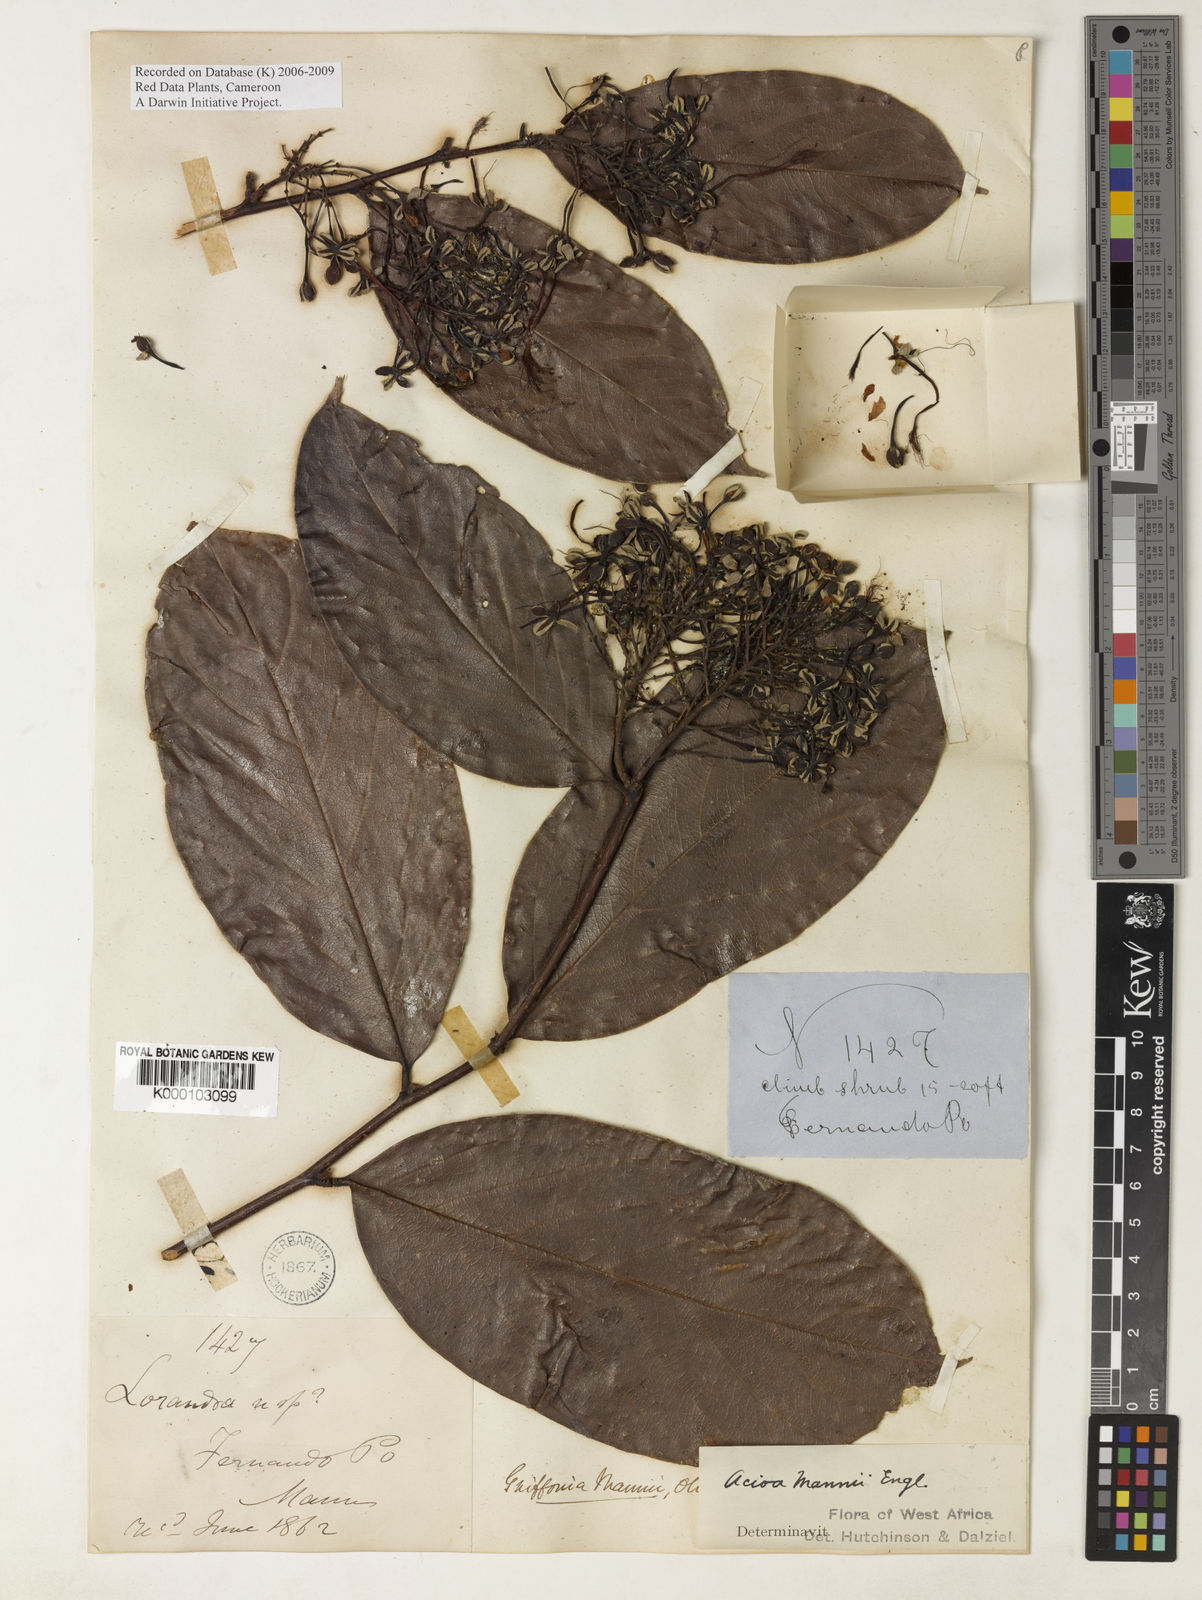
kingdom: Plantae
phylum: Tracheophyta
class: Magnoliopsida
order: Malpighiales
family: Chrysobalanaceae
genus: Dactyladenia
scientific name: Dactyladenia mannii
